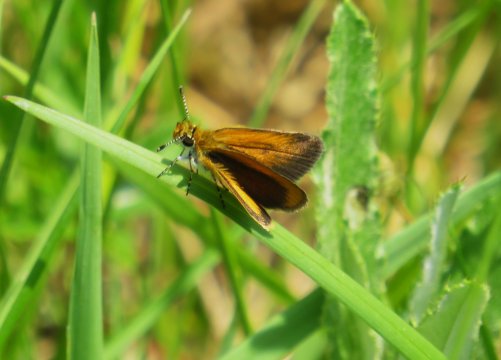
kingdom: Animalia
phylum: Arthropoda
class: Insecta
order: Lepidoptera
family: Hesperiidae
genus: Ancyloxypha
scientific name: Ancyloxypha numitor
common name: Least Skipper
